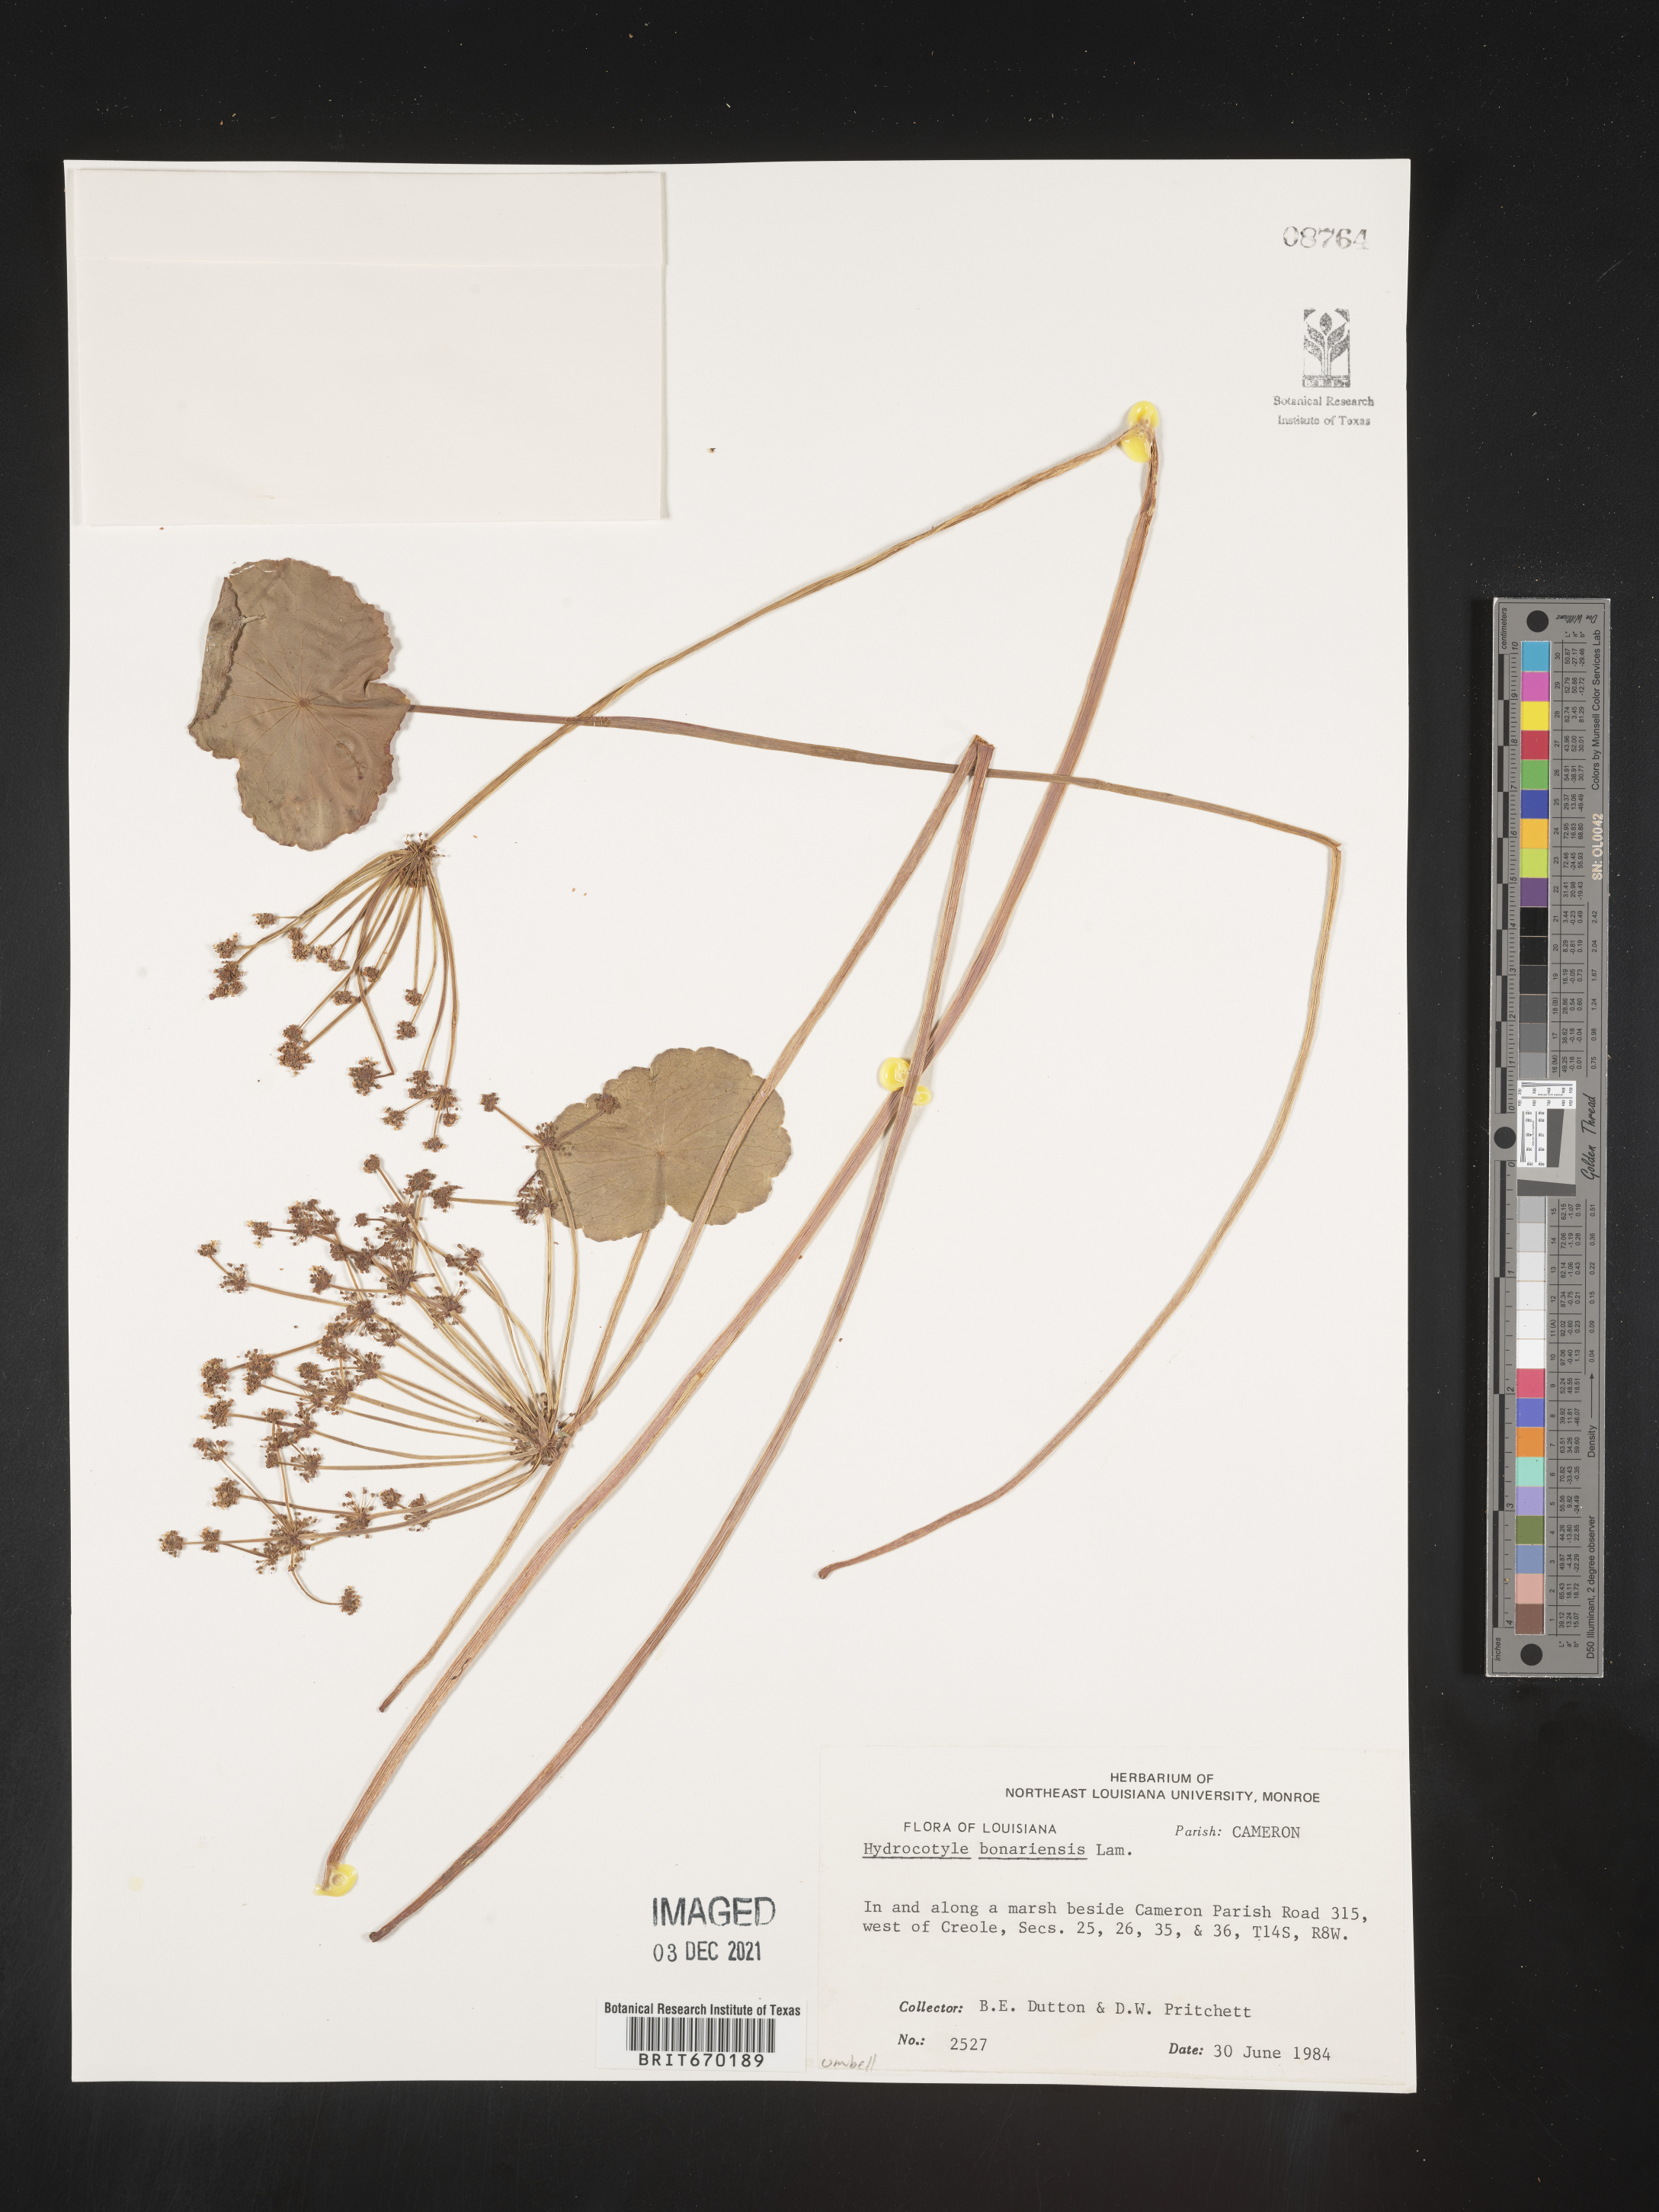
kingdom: Plantae
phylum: Tracheophyta
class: Magnoliopsida
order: Apiales
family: Araliaceae
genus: Hydrocotyle
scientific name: Hydrocotyle bonariensis
